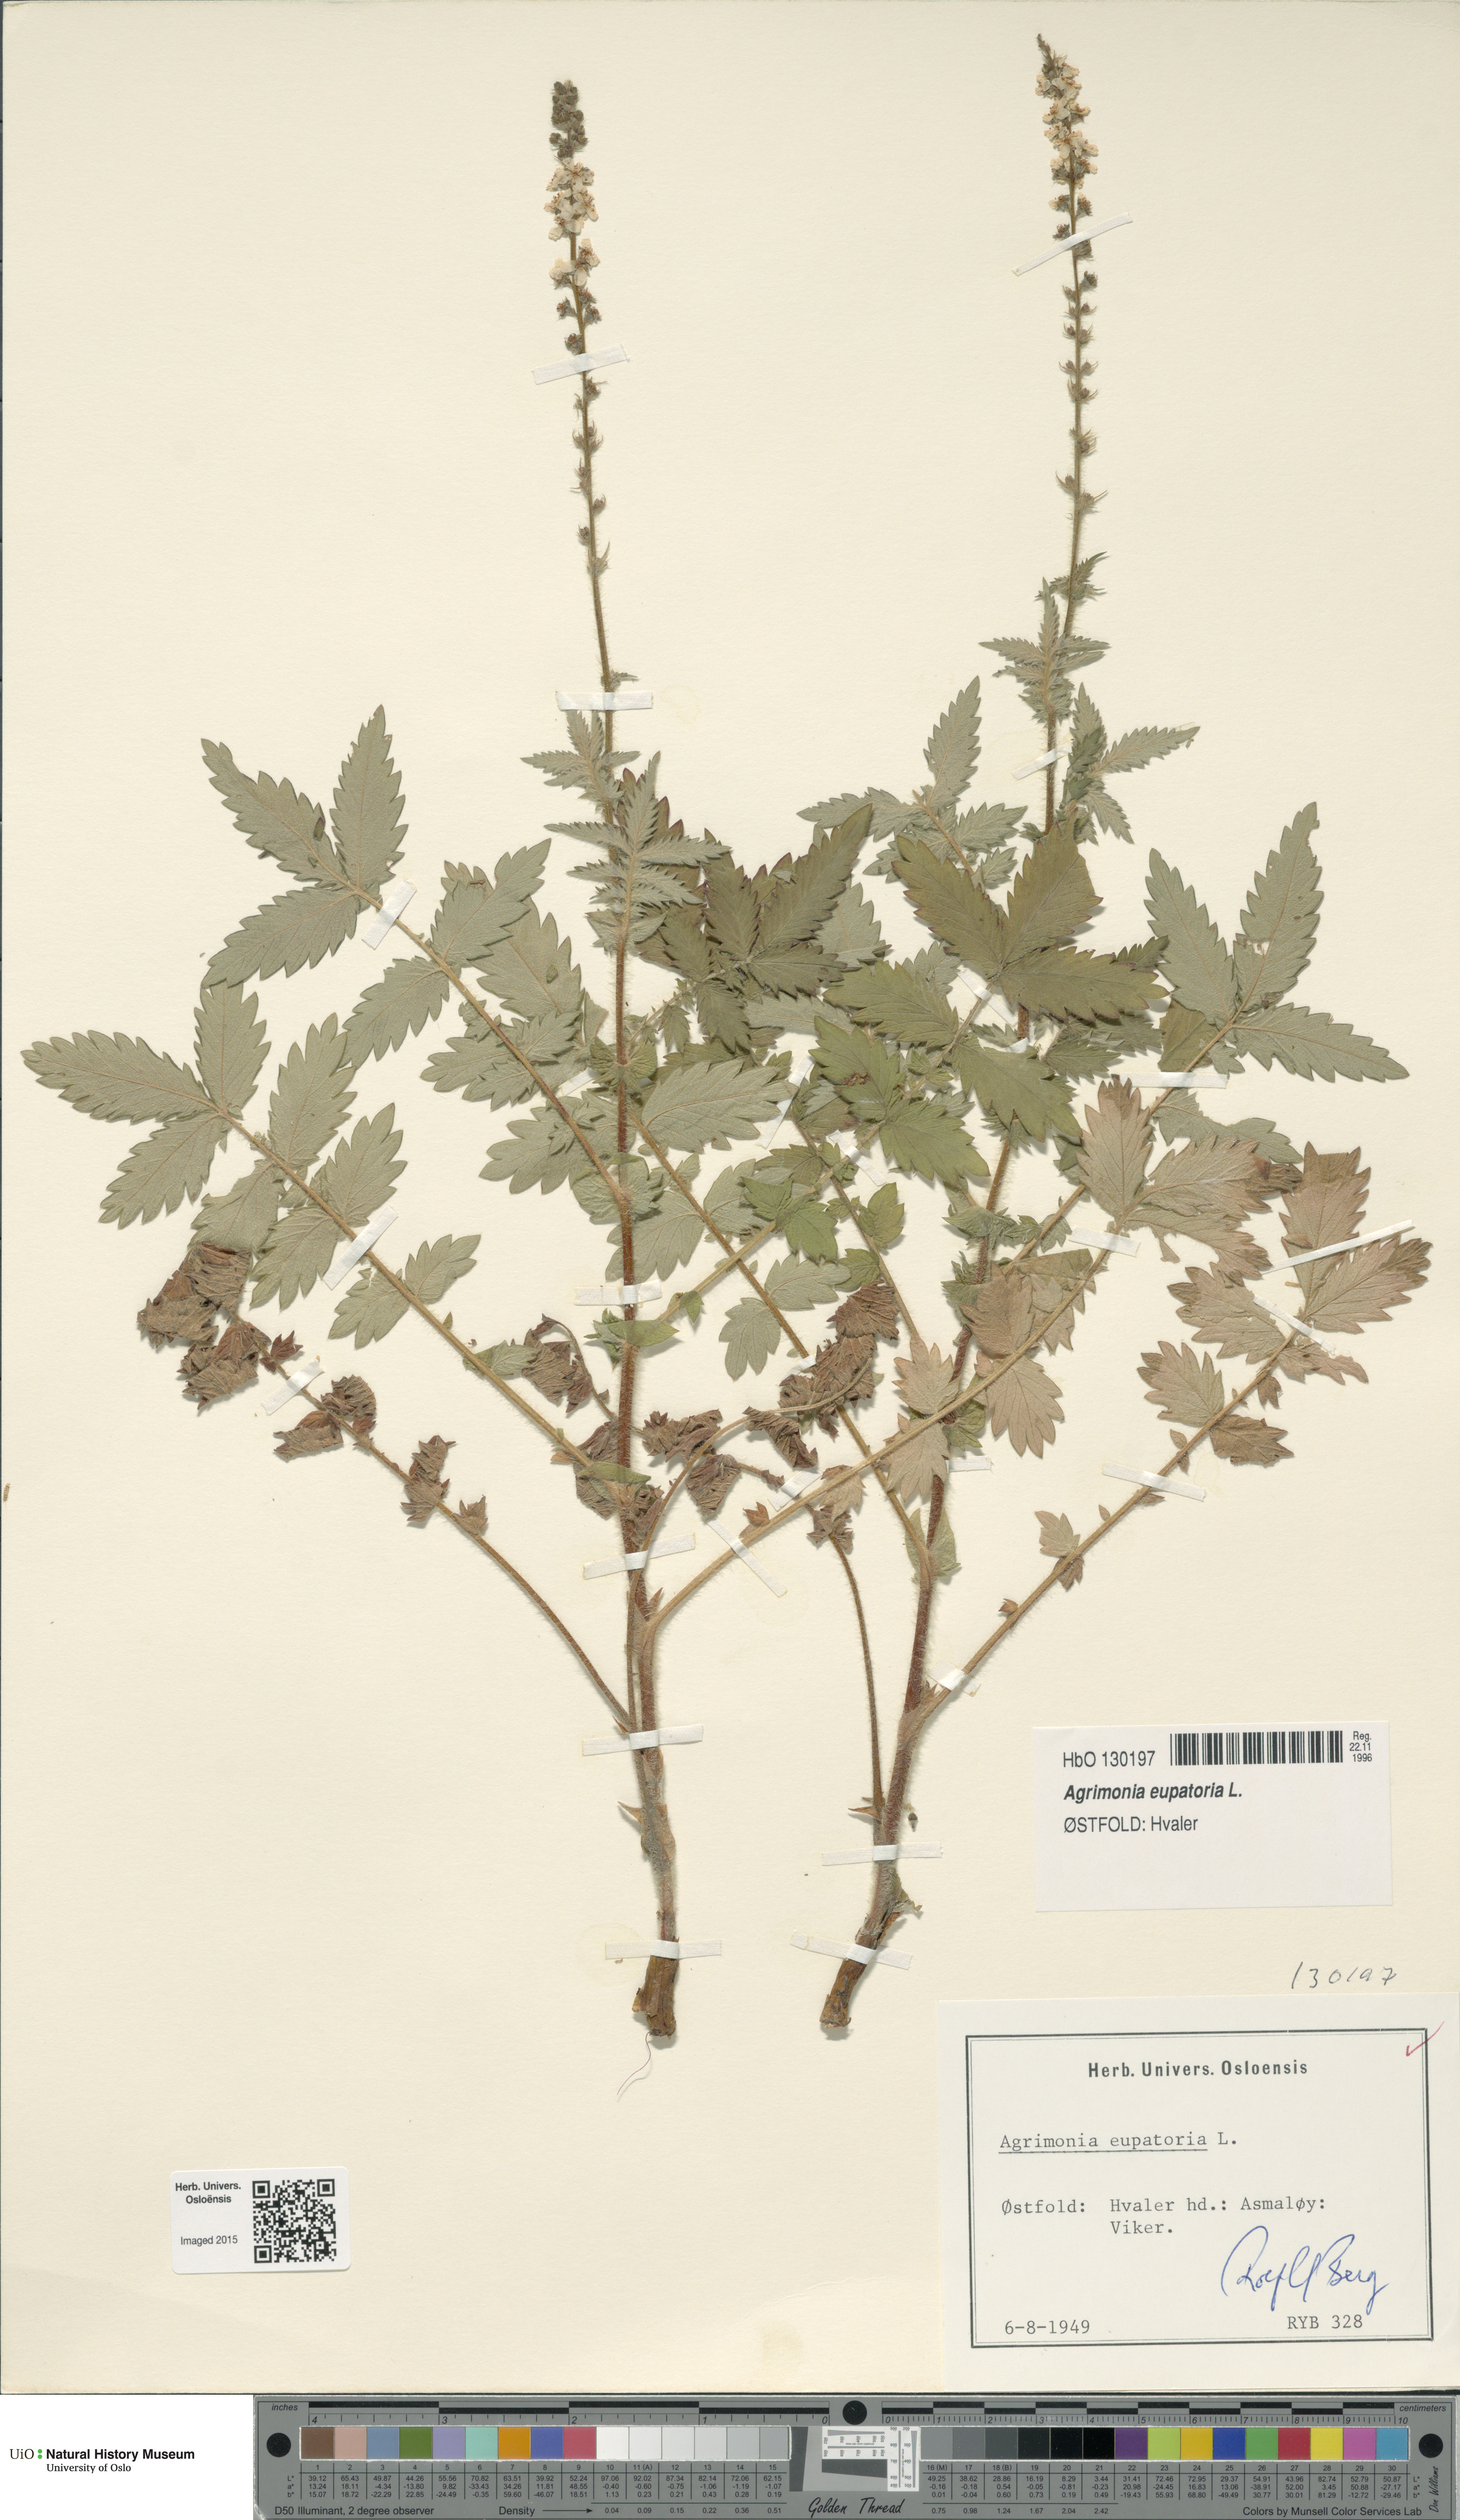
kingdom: Plantae
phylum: Tracheophyta
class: Magnoliopsida
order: Rosales
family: Rosaceae
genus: Agrimonia
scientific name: Agrimonia eupatoria
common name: Agrimony
